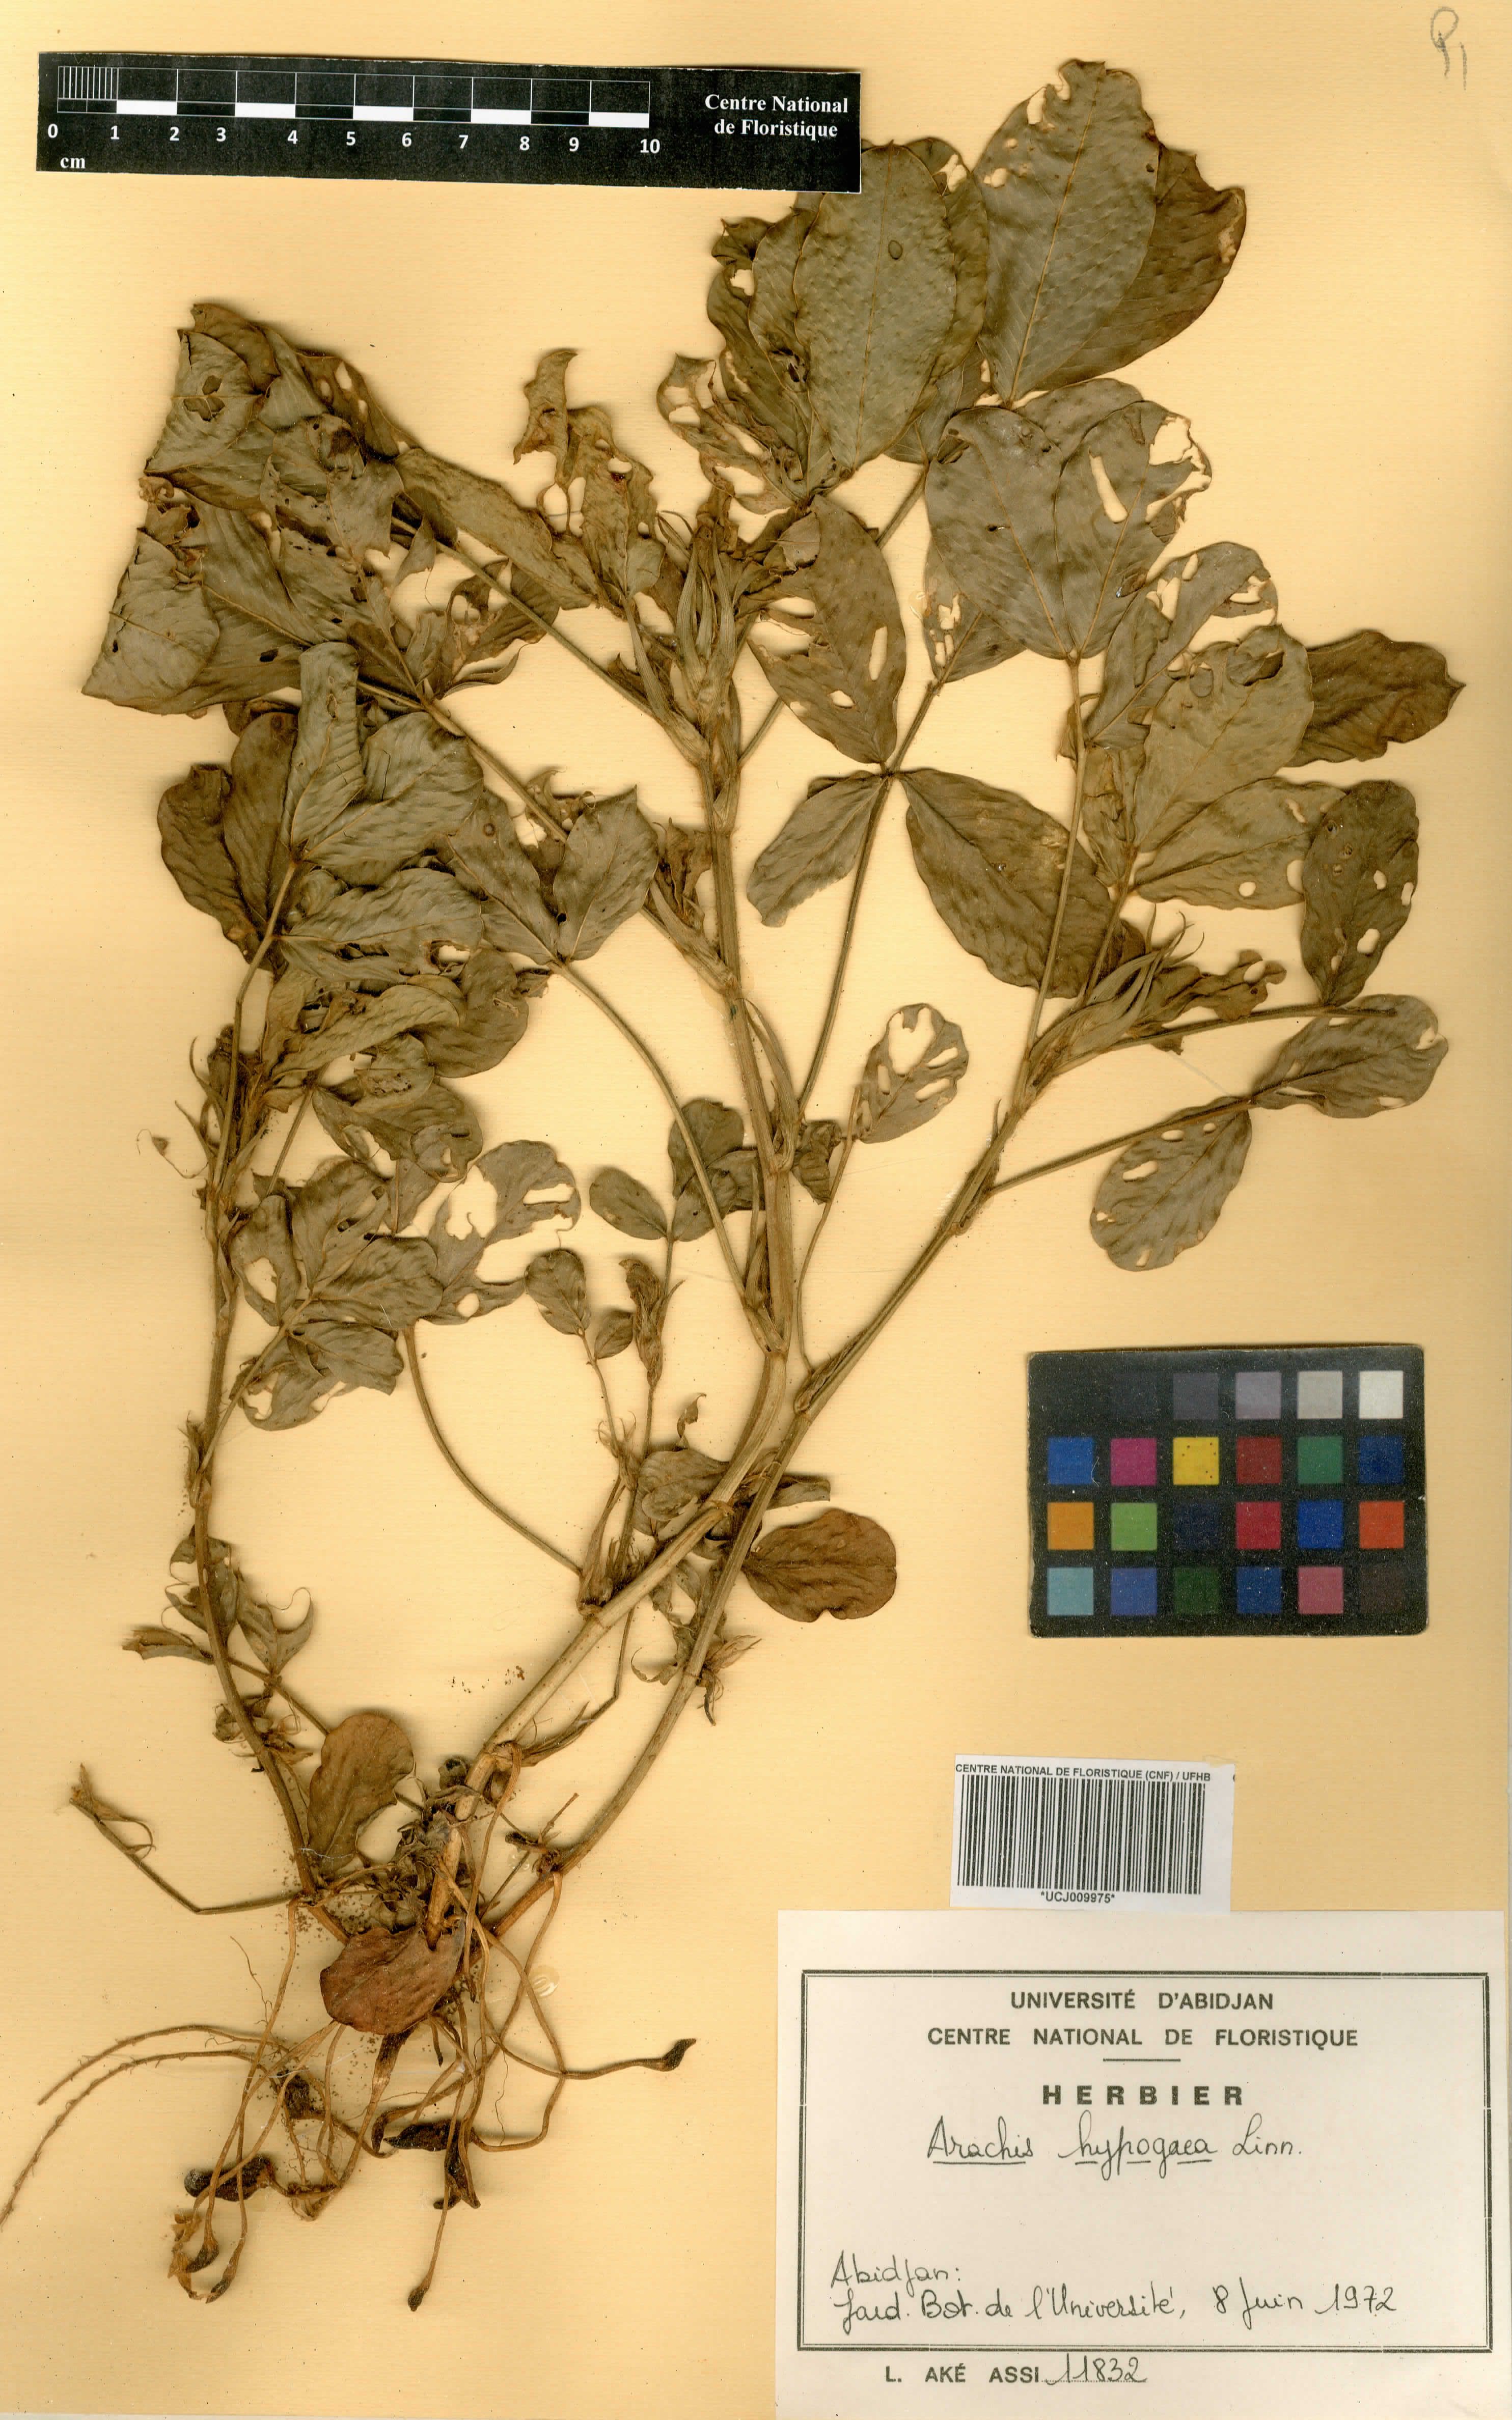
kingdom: Plantae
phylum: Tracheophyta
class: Magnoliopsida
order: Fabales
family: Fabaceae
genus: Arachis
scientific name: Arachis hypogaea
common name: Peanut
